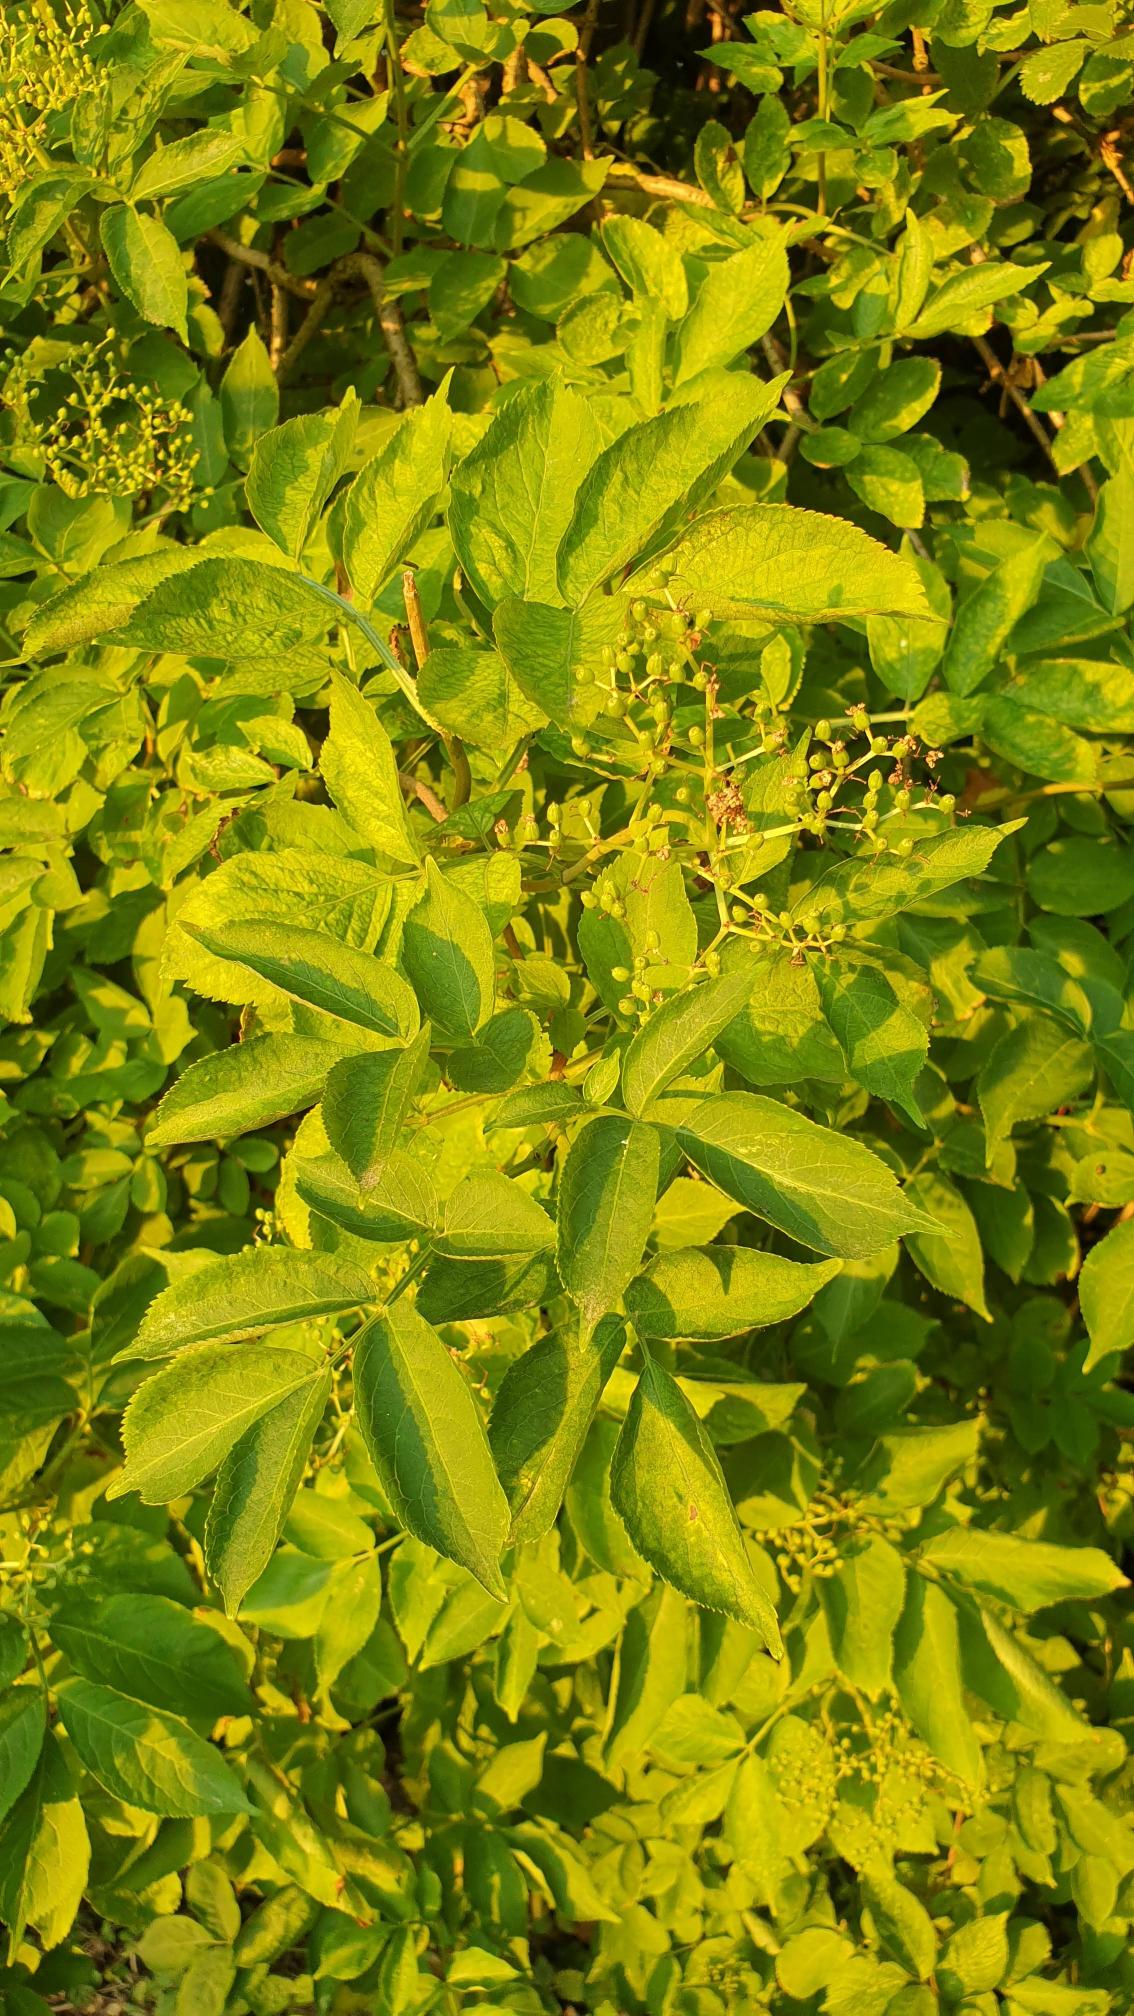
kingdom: Plantae
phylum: Tracheophyta
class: Magnoliopsida
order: Dipsacales
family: Viburnaceae
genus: Sambucus
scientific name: Sambucus nigra
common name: Almindelig hyld
